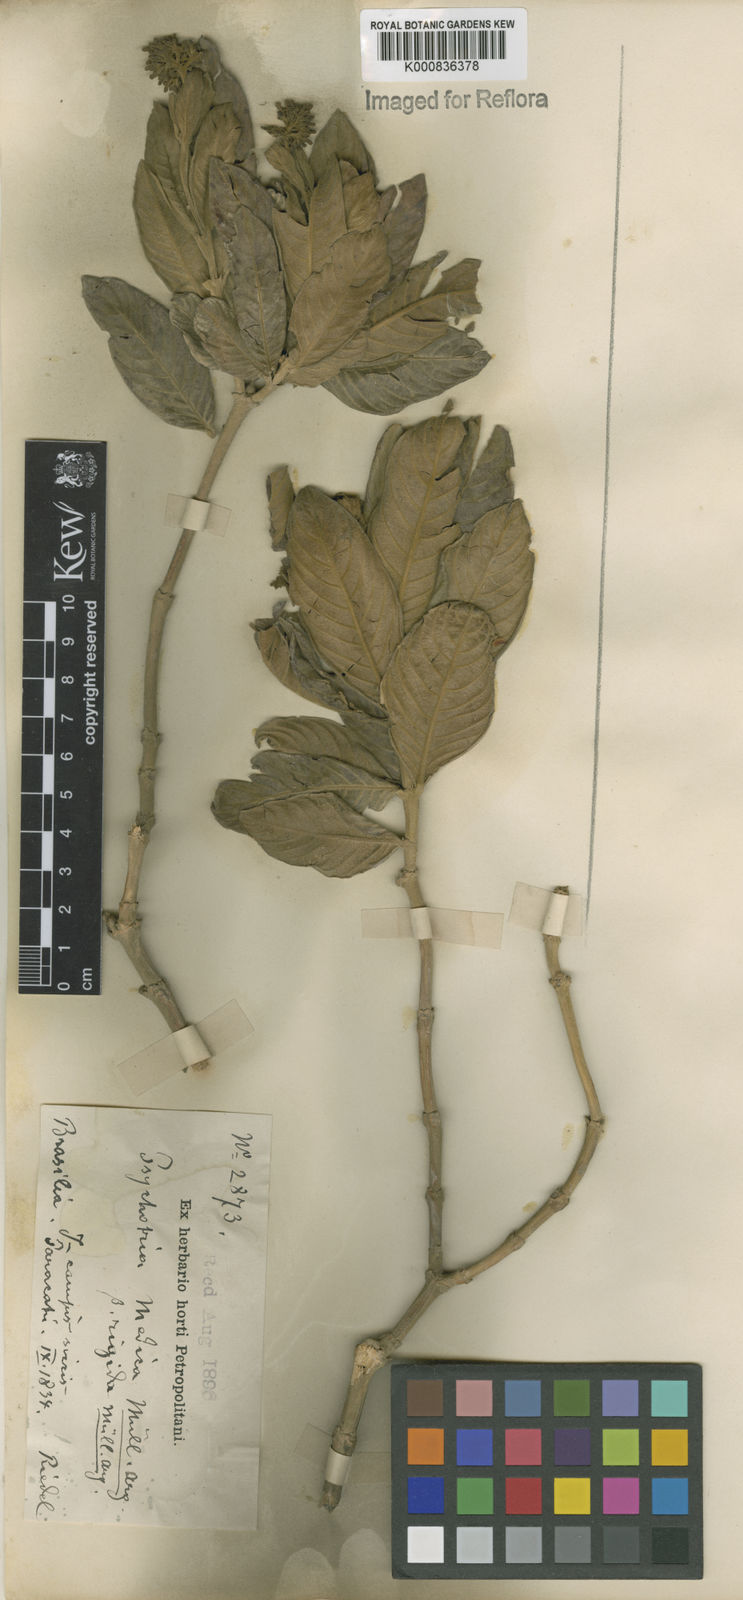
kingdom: Plantae
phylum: Tracheophyta
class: Magnoliopsida
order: Gentianales
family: Rubiaceae
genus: Palicourea
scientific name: Palicourea officinalis
